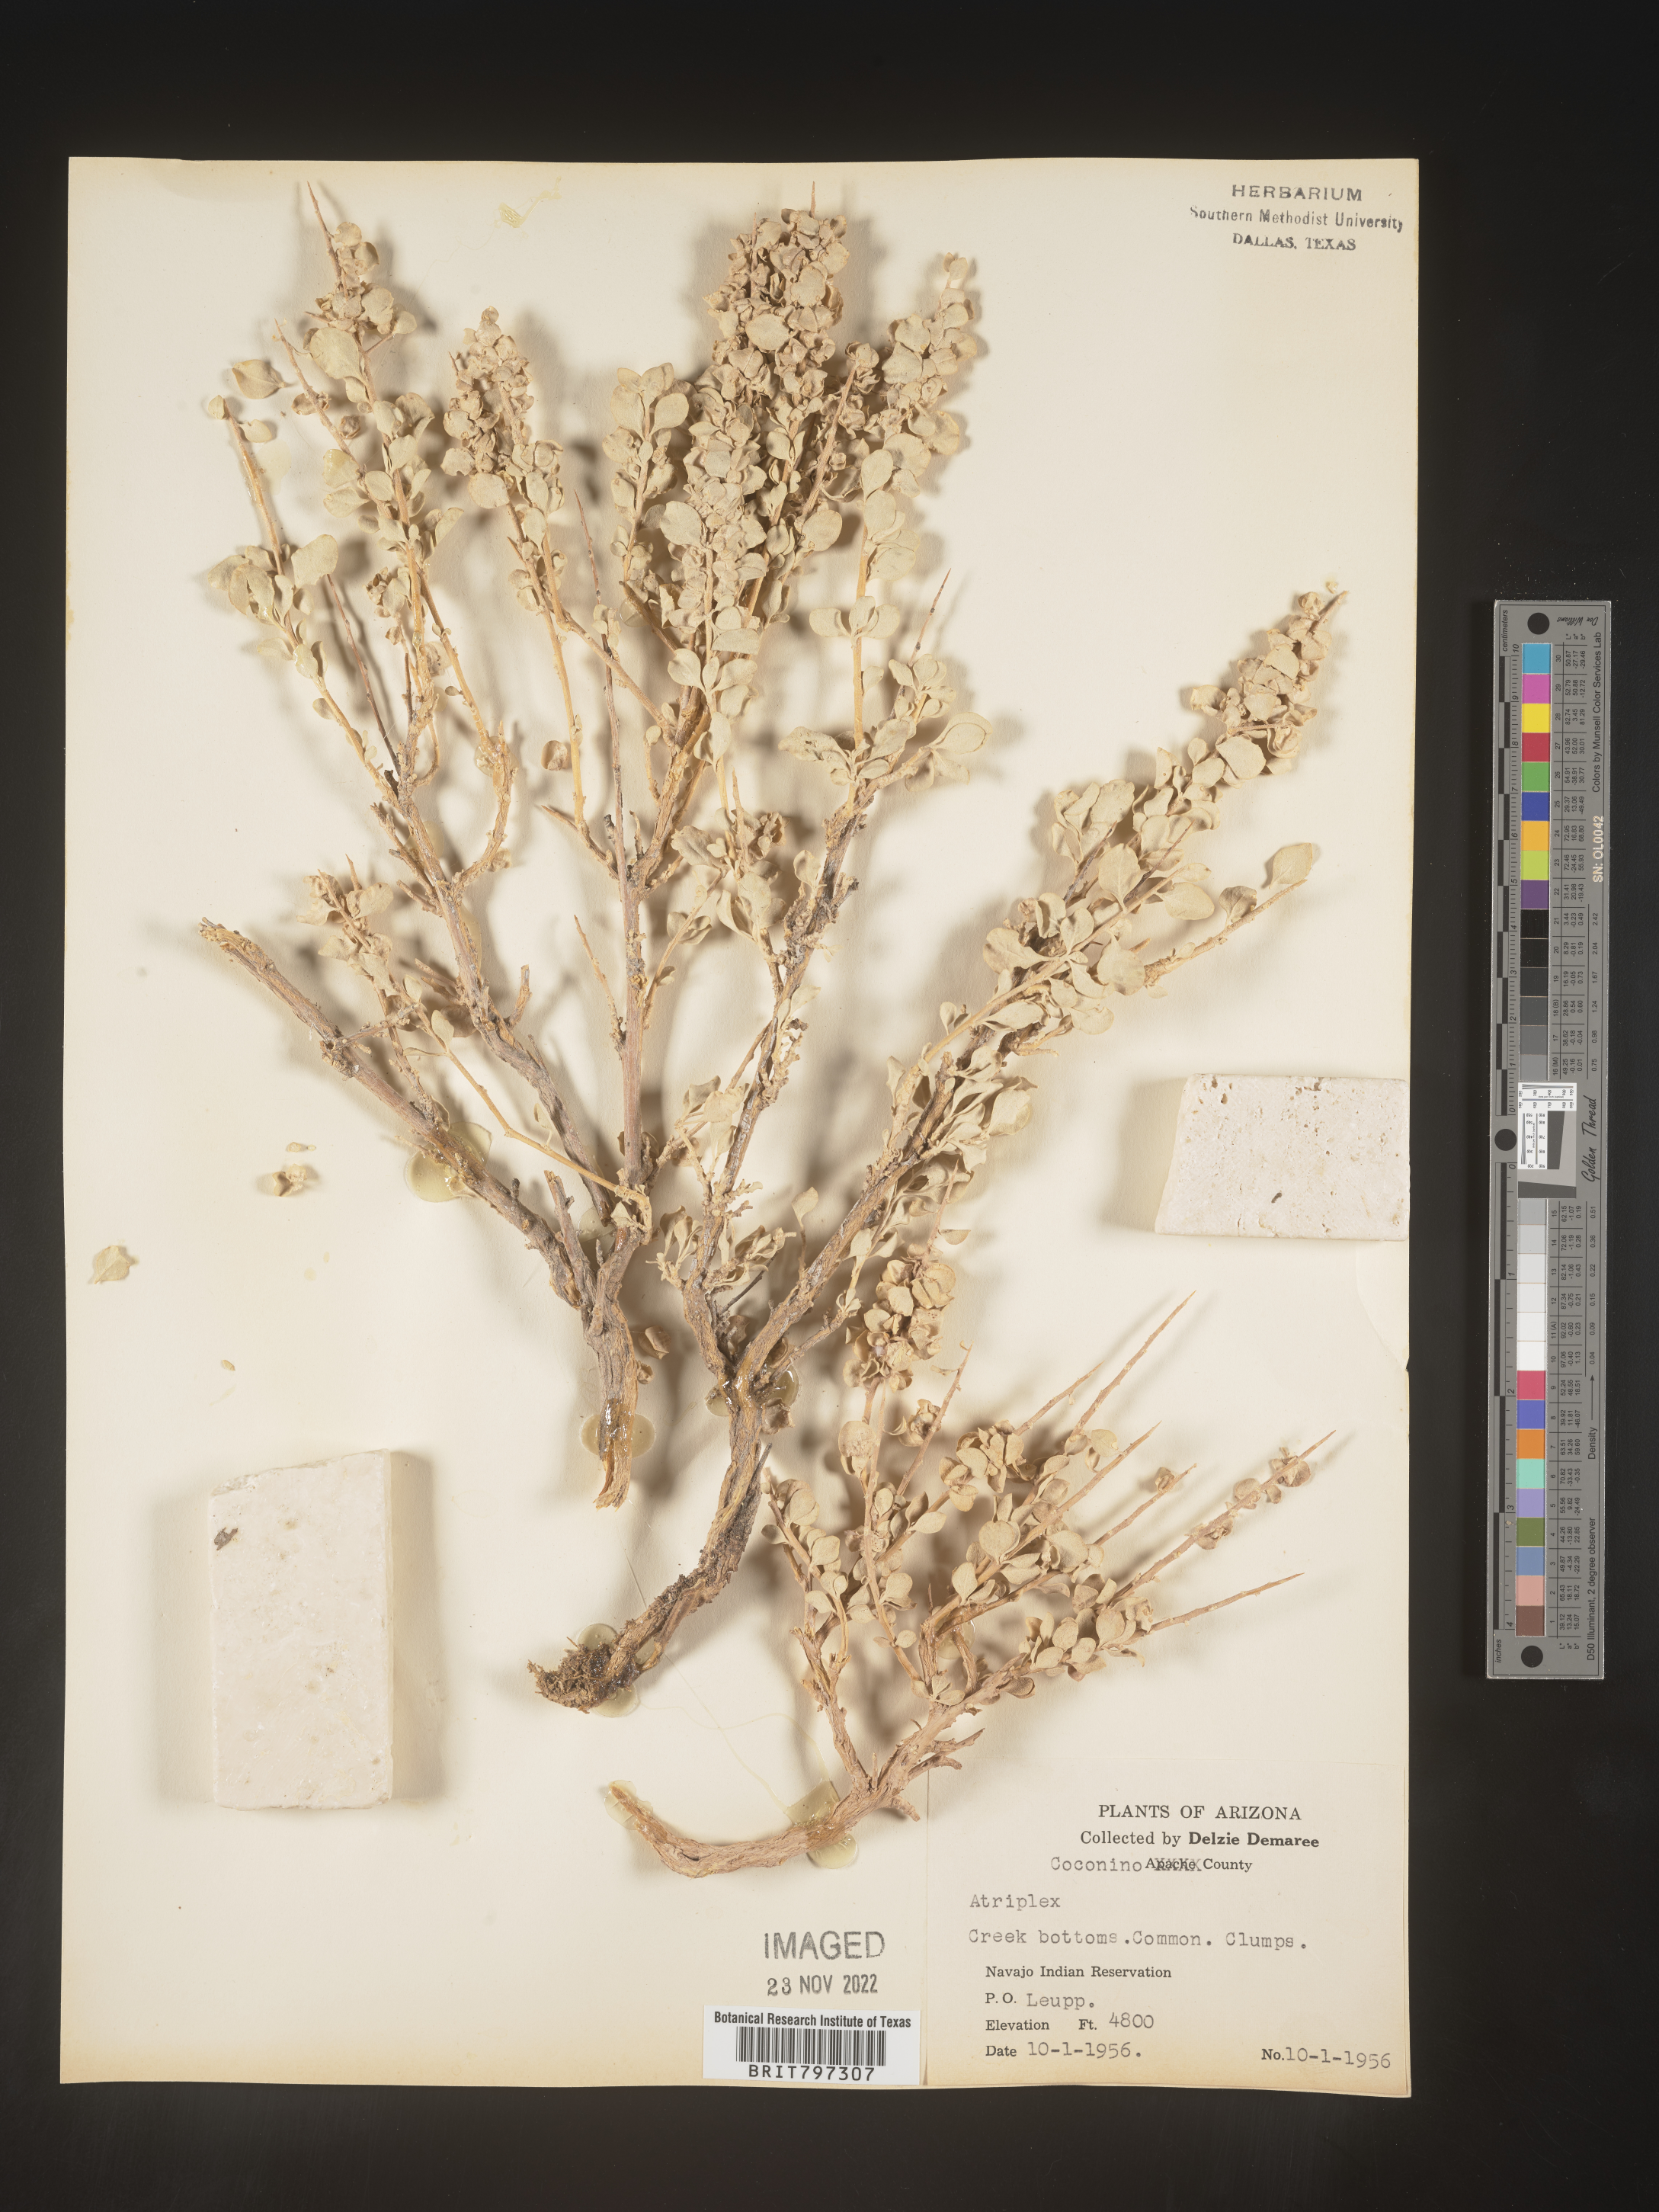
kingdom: Plantae
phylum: Tracheophyta
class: Magnoliopsida
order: Caryophyllales
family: Amaranthaceae
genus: Atriplex
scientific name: Atriplex
